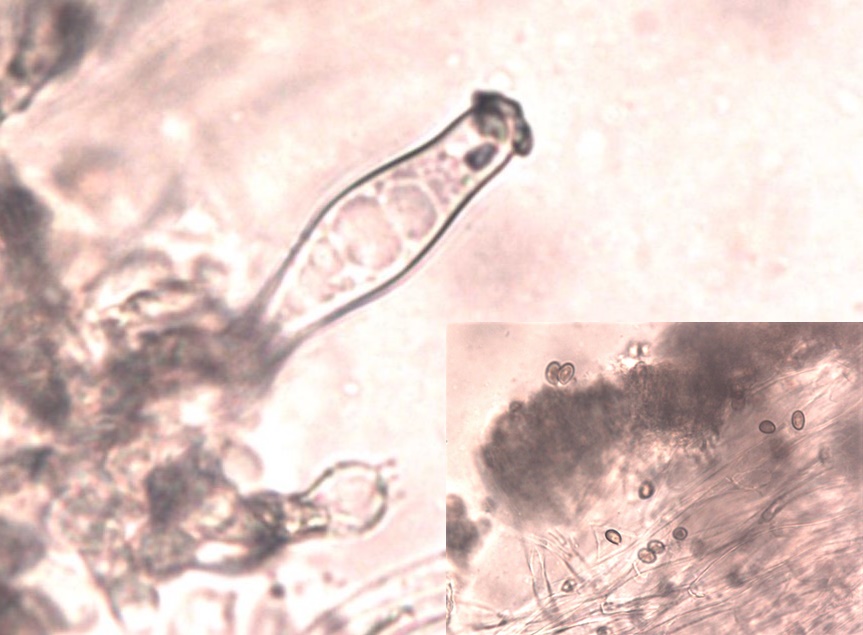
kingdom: Fungi
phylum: Basidiomycota
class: Agaricomycetes
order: Agaricales
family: Inocybaceae
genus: Inocybe
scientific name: Inocybe geophylla
